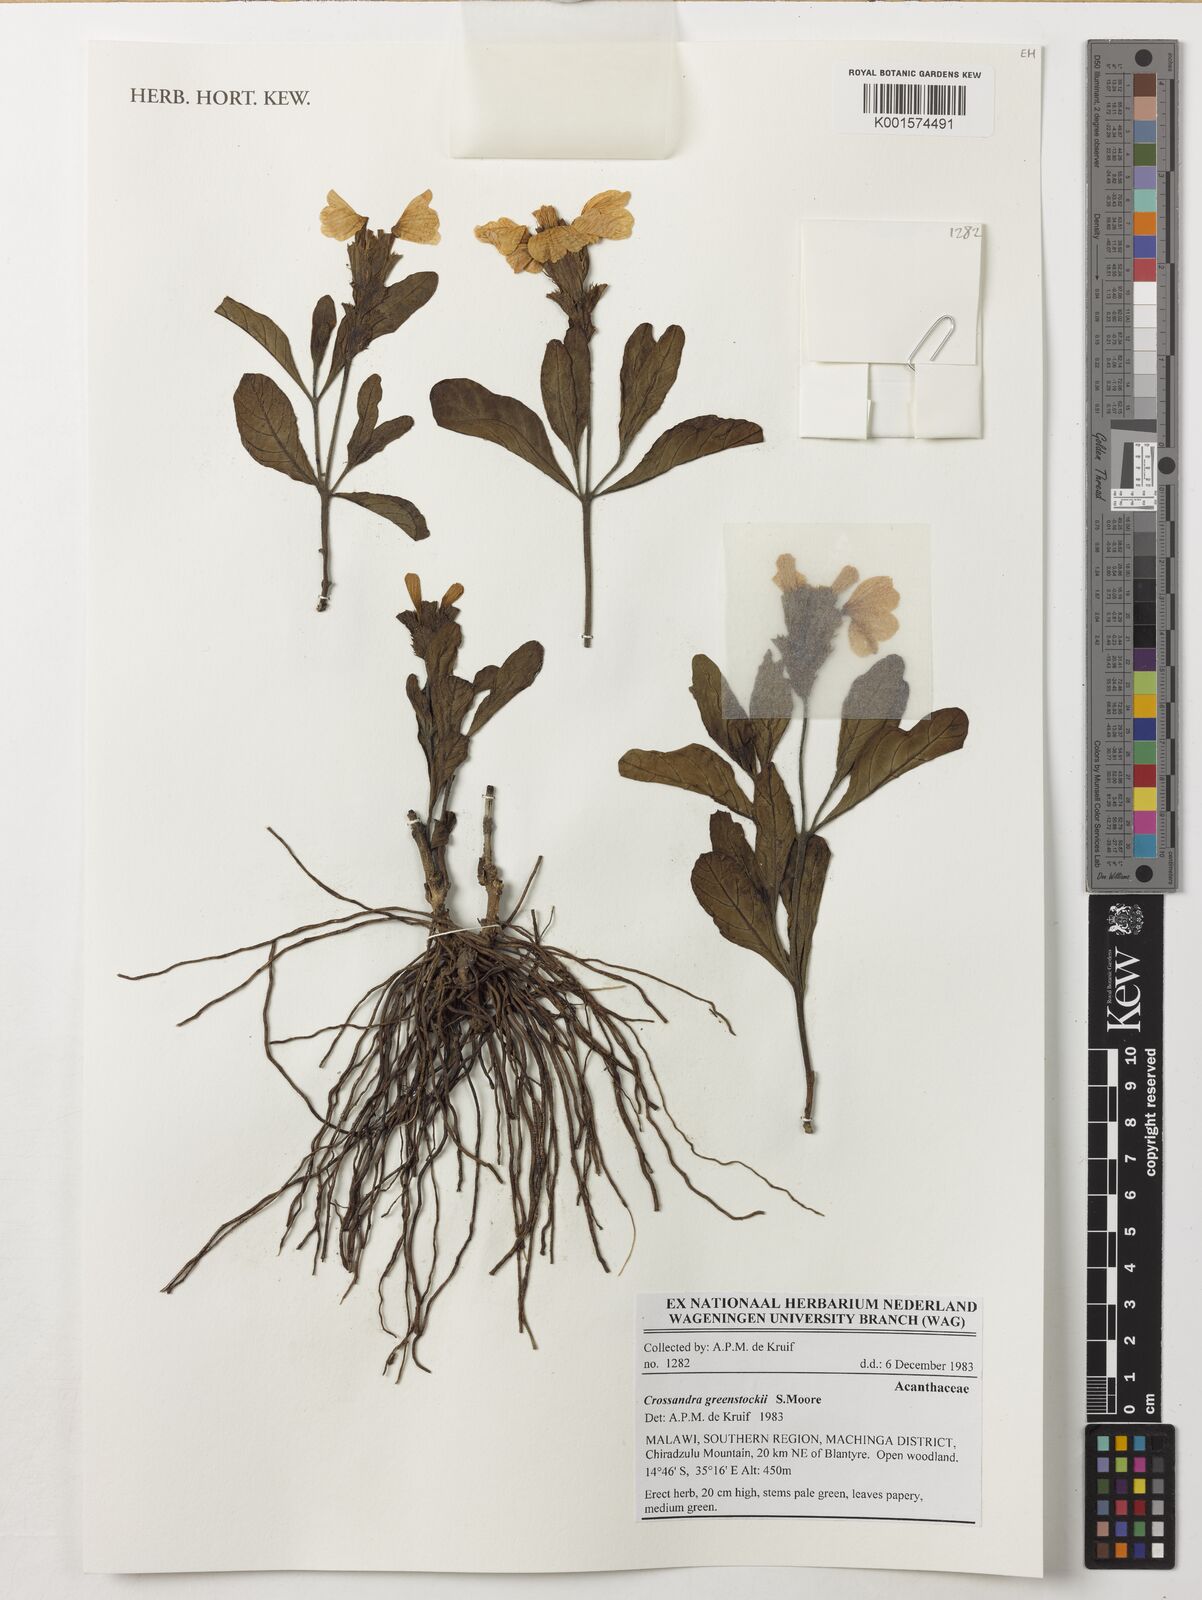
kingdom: Plantae
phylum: Tracheophyta
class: Magnoliopsida
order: Lamiales
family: Acanthaceae
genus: Crossandra
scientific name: Crossandra greenstockii
